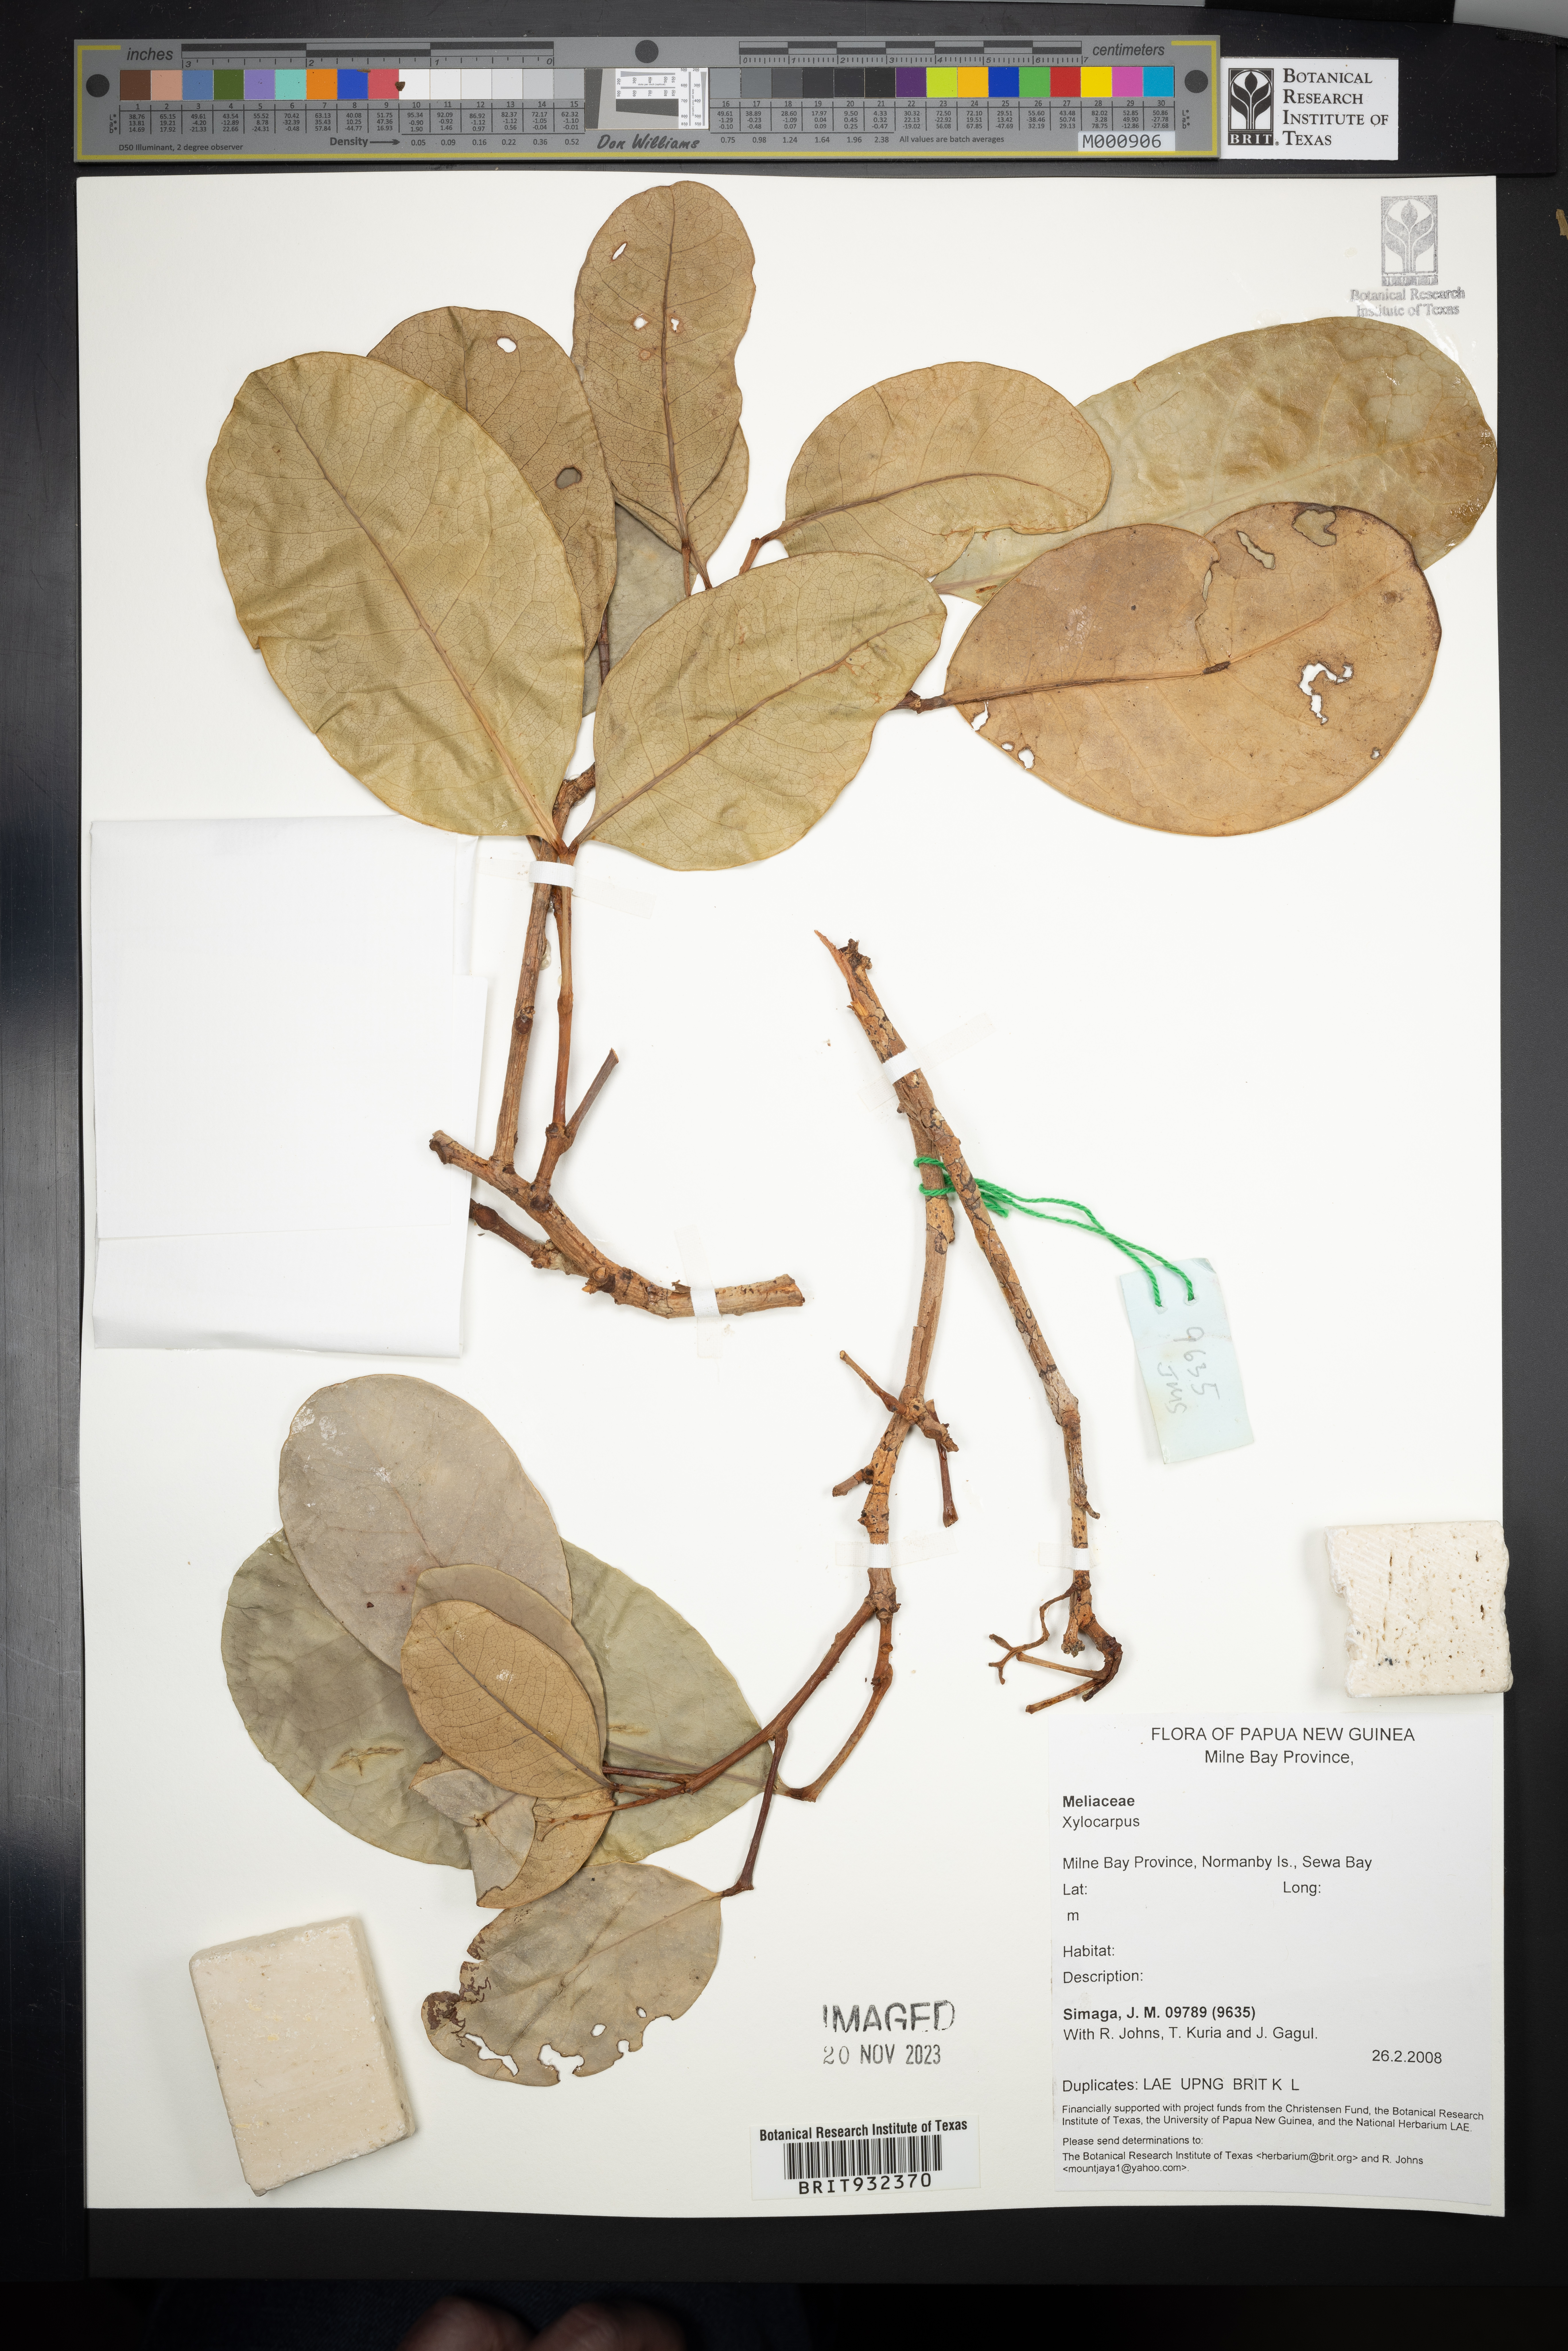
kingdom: Plantae
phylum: Tracheophyta
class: Magnoliopsida
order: Sapindales
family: Meliaceae
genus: Xylocarpus
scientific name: Xylocarpus
